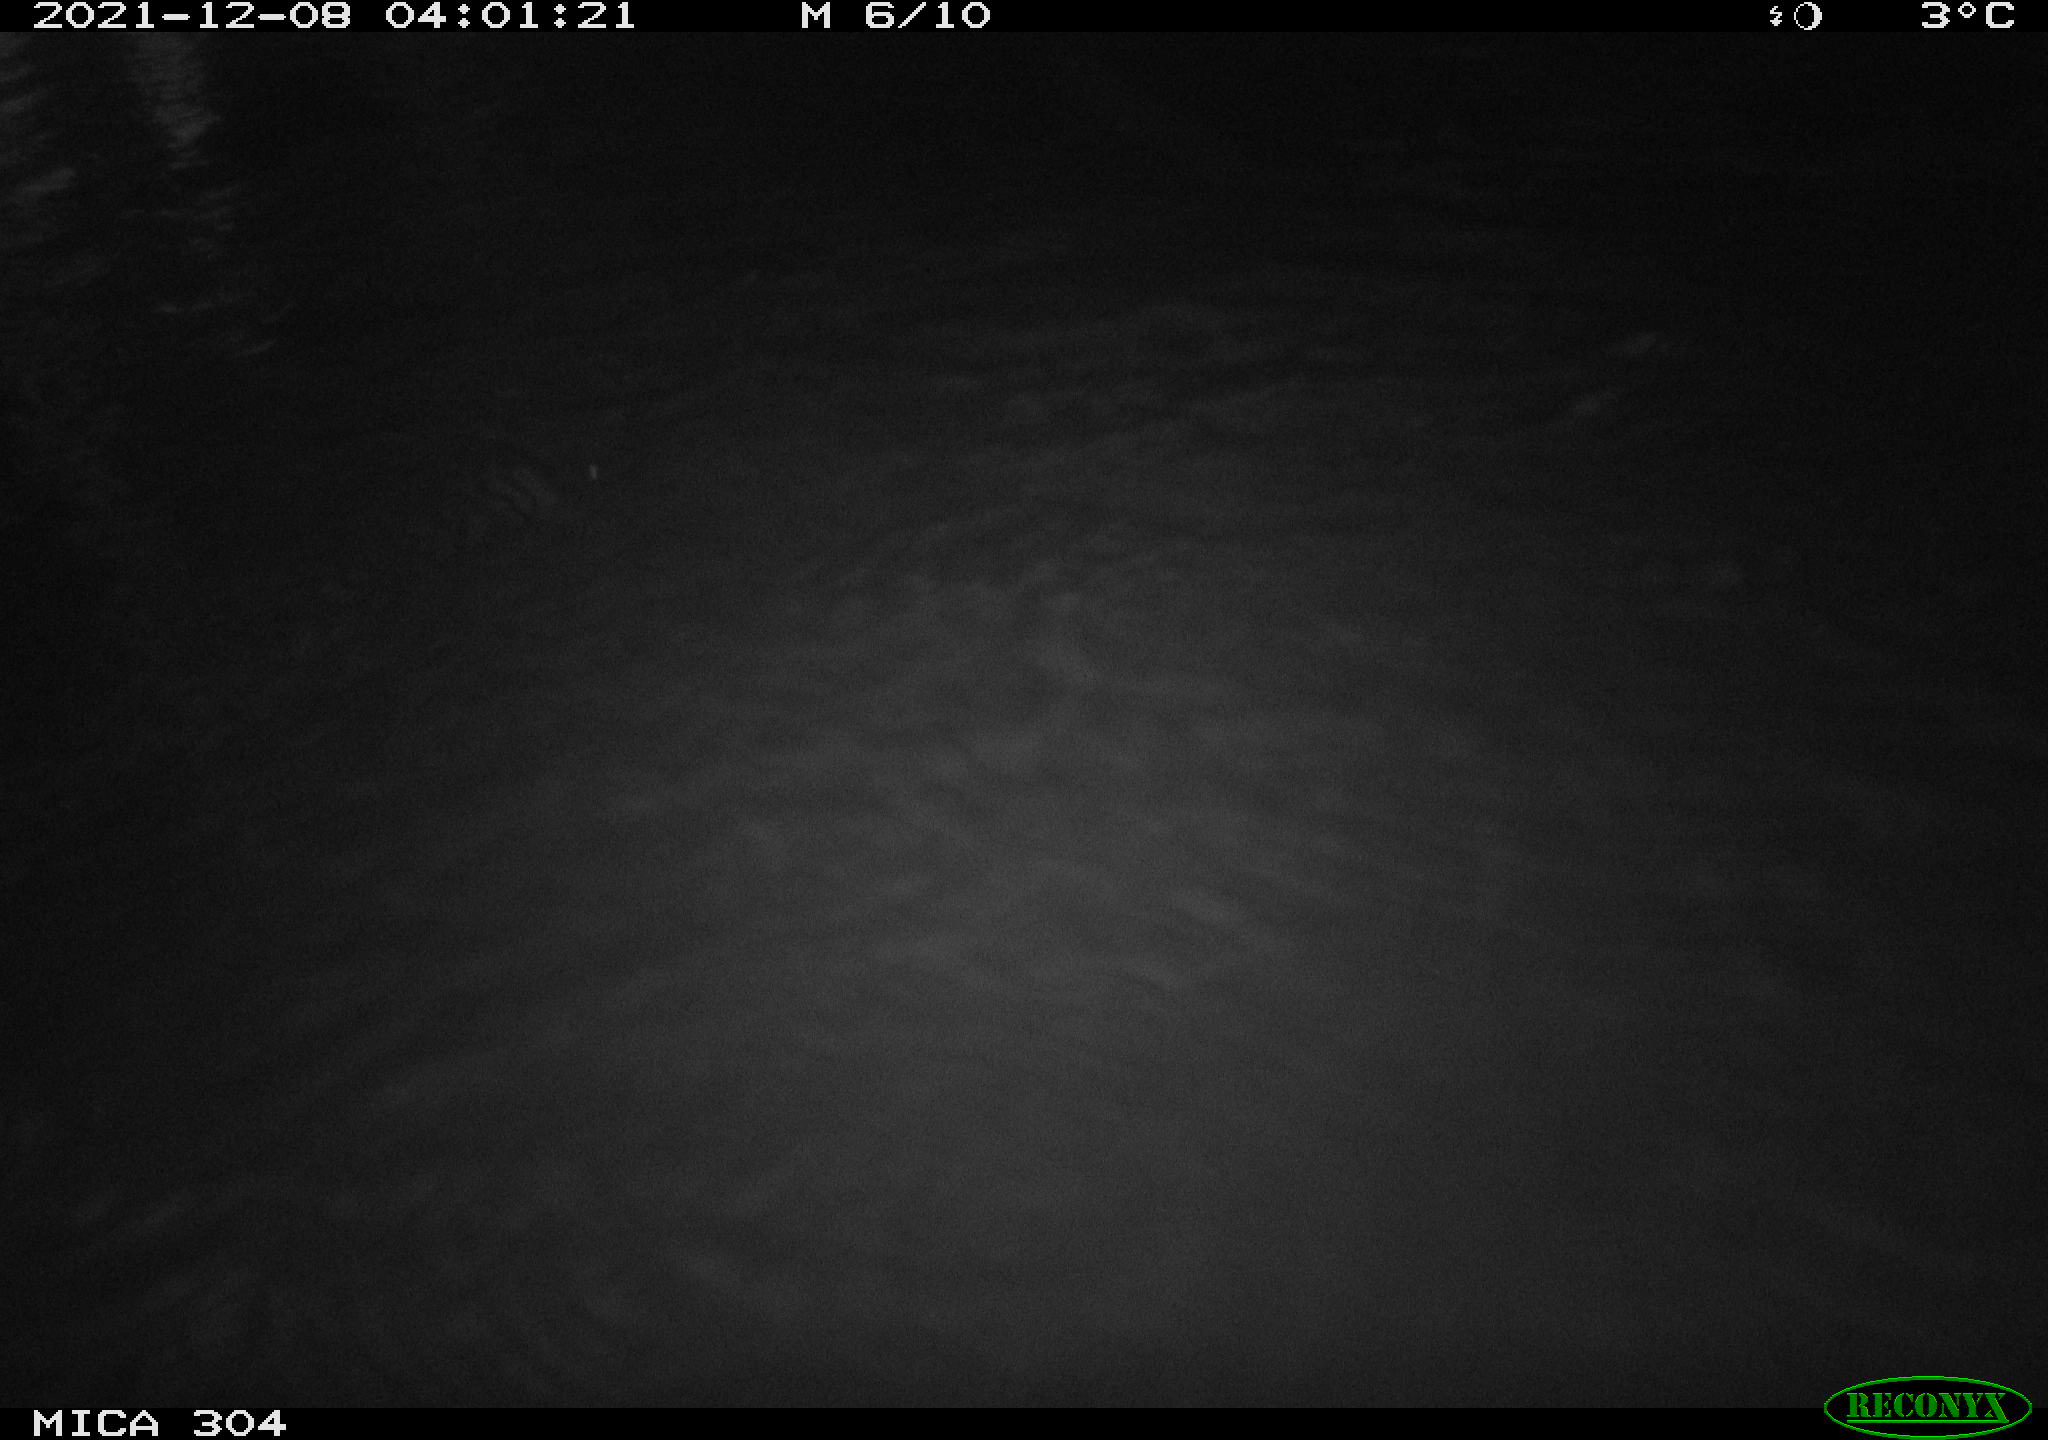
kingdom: Animalia
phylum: Chordata
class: Mammalia
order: Rodentia
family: Muridae
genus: Rattus
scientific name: Rattus norvegicus
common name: Brown rat
